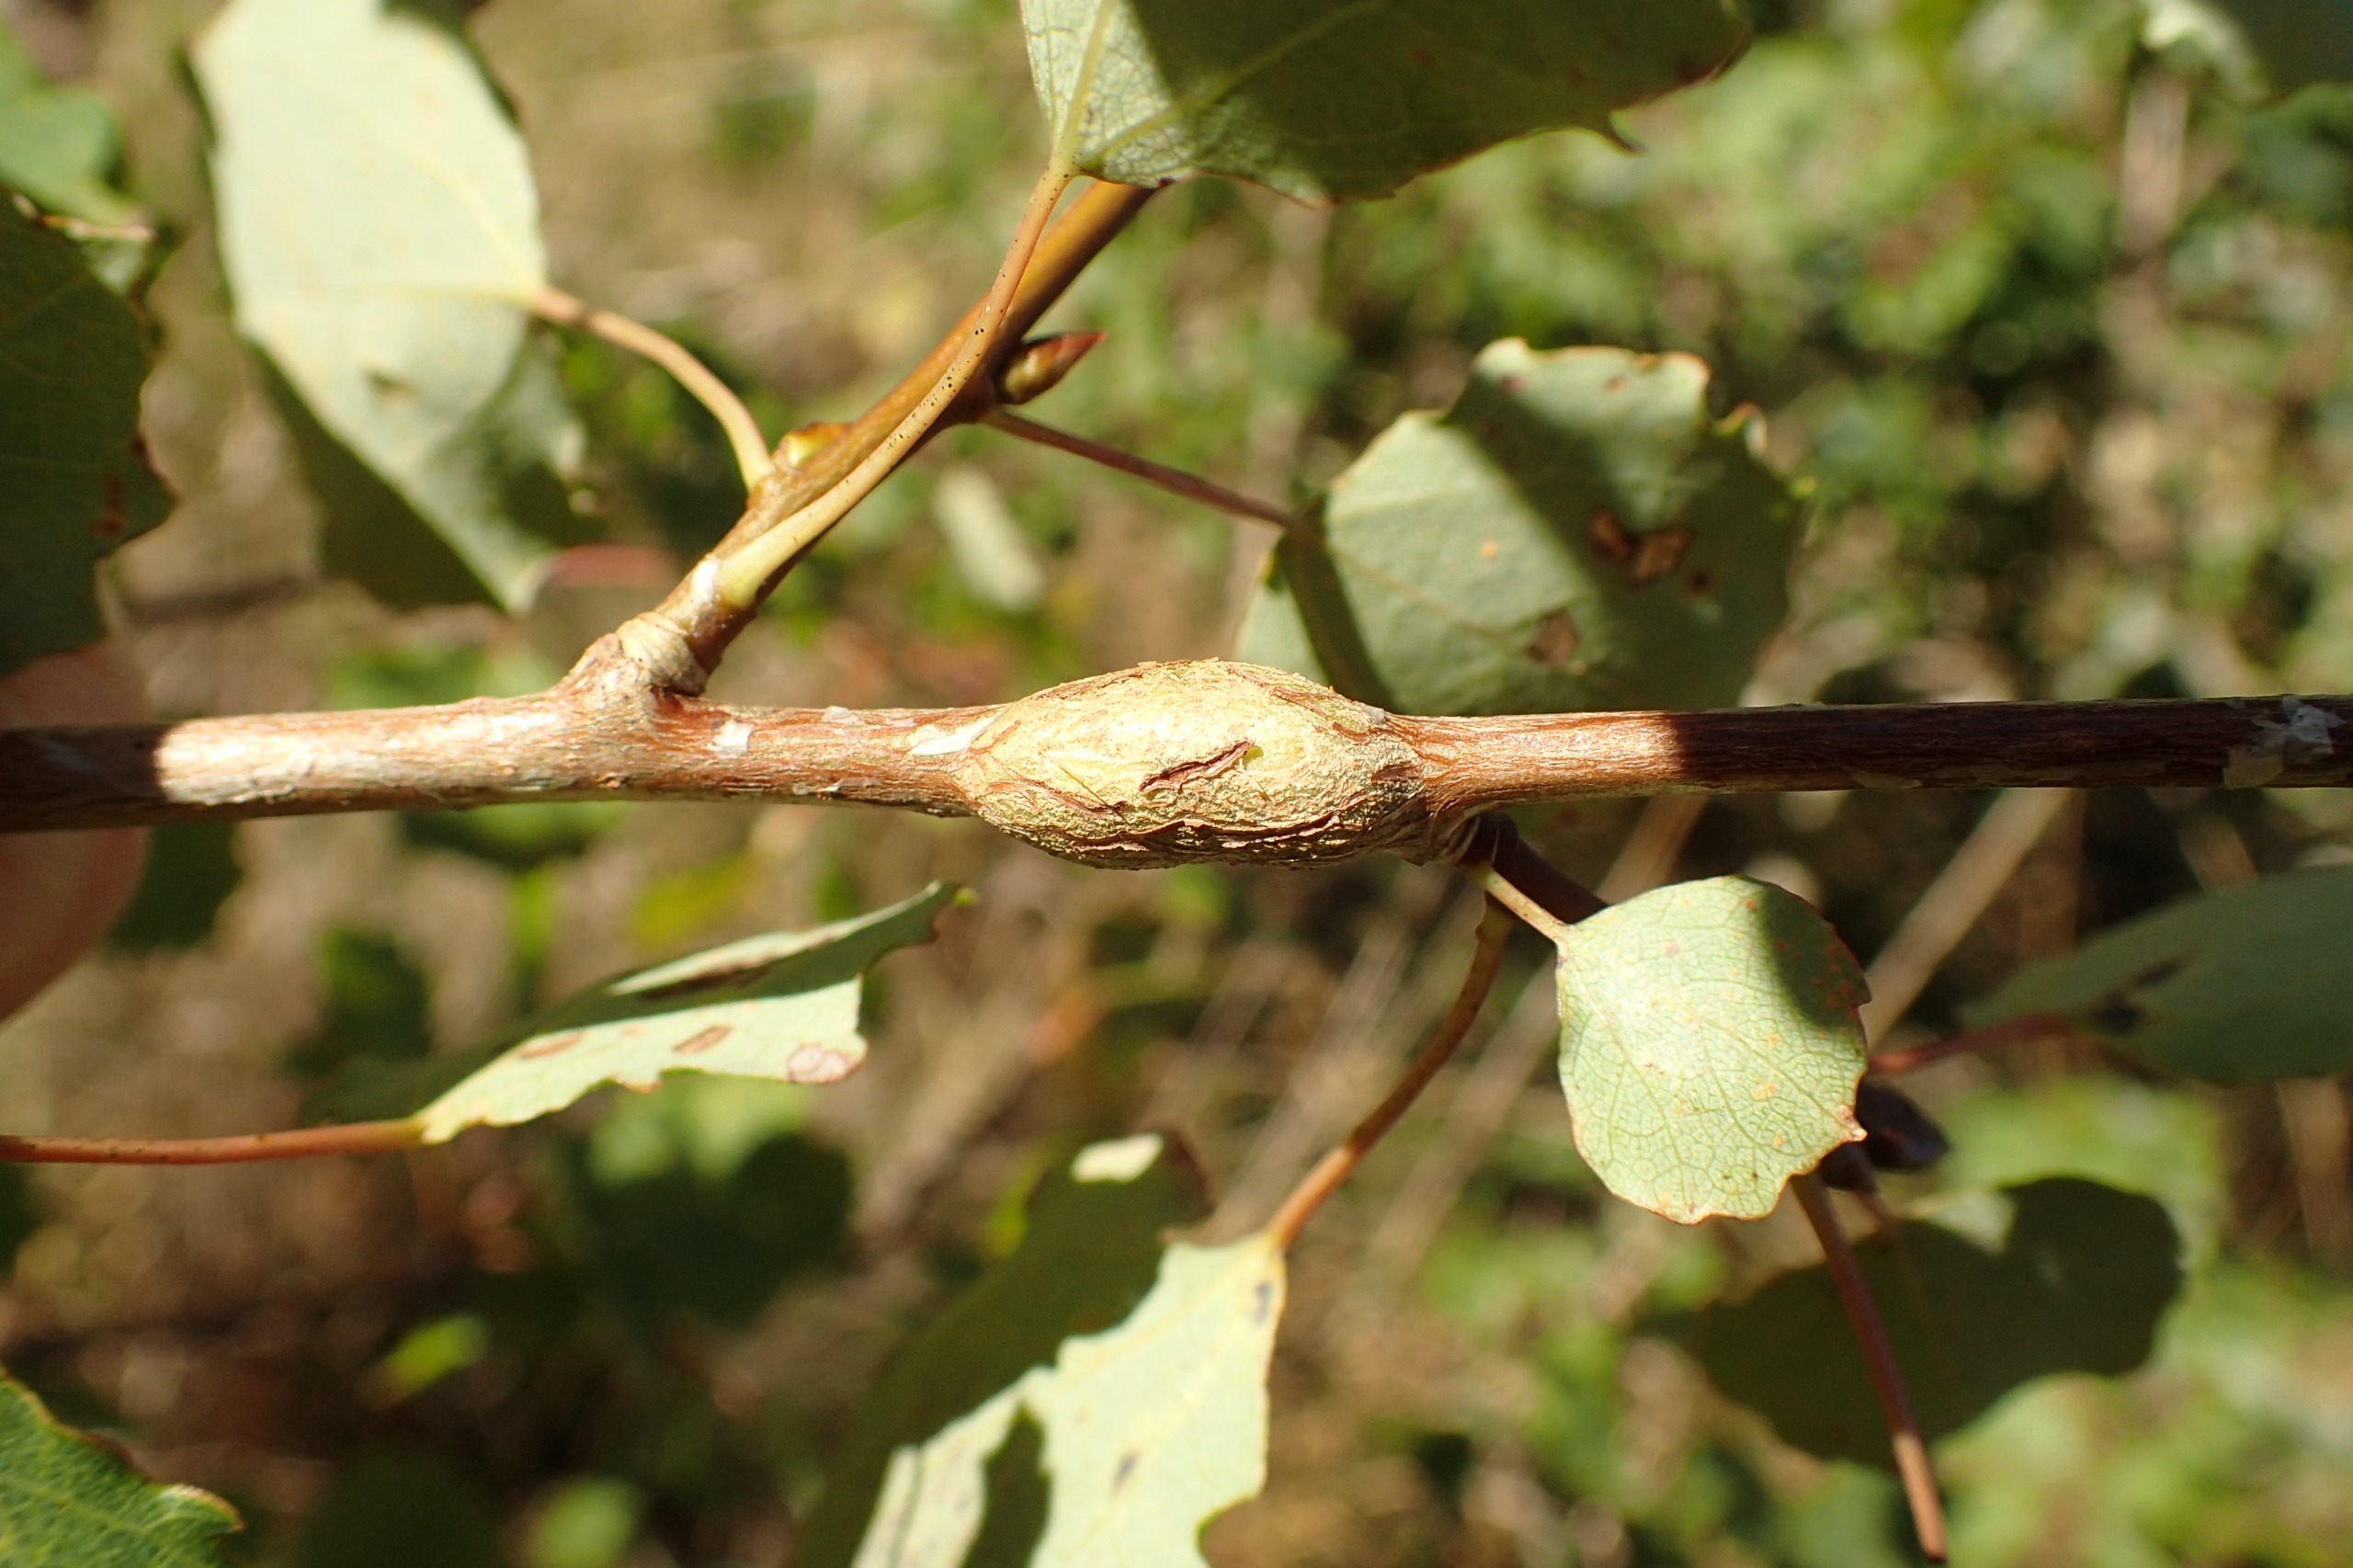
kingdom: Animalia
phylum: Arthropoda
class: Insecta
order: Diptera
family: Agromyzidae
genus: Euhexomyza
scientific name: Euhexomyza schineri
